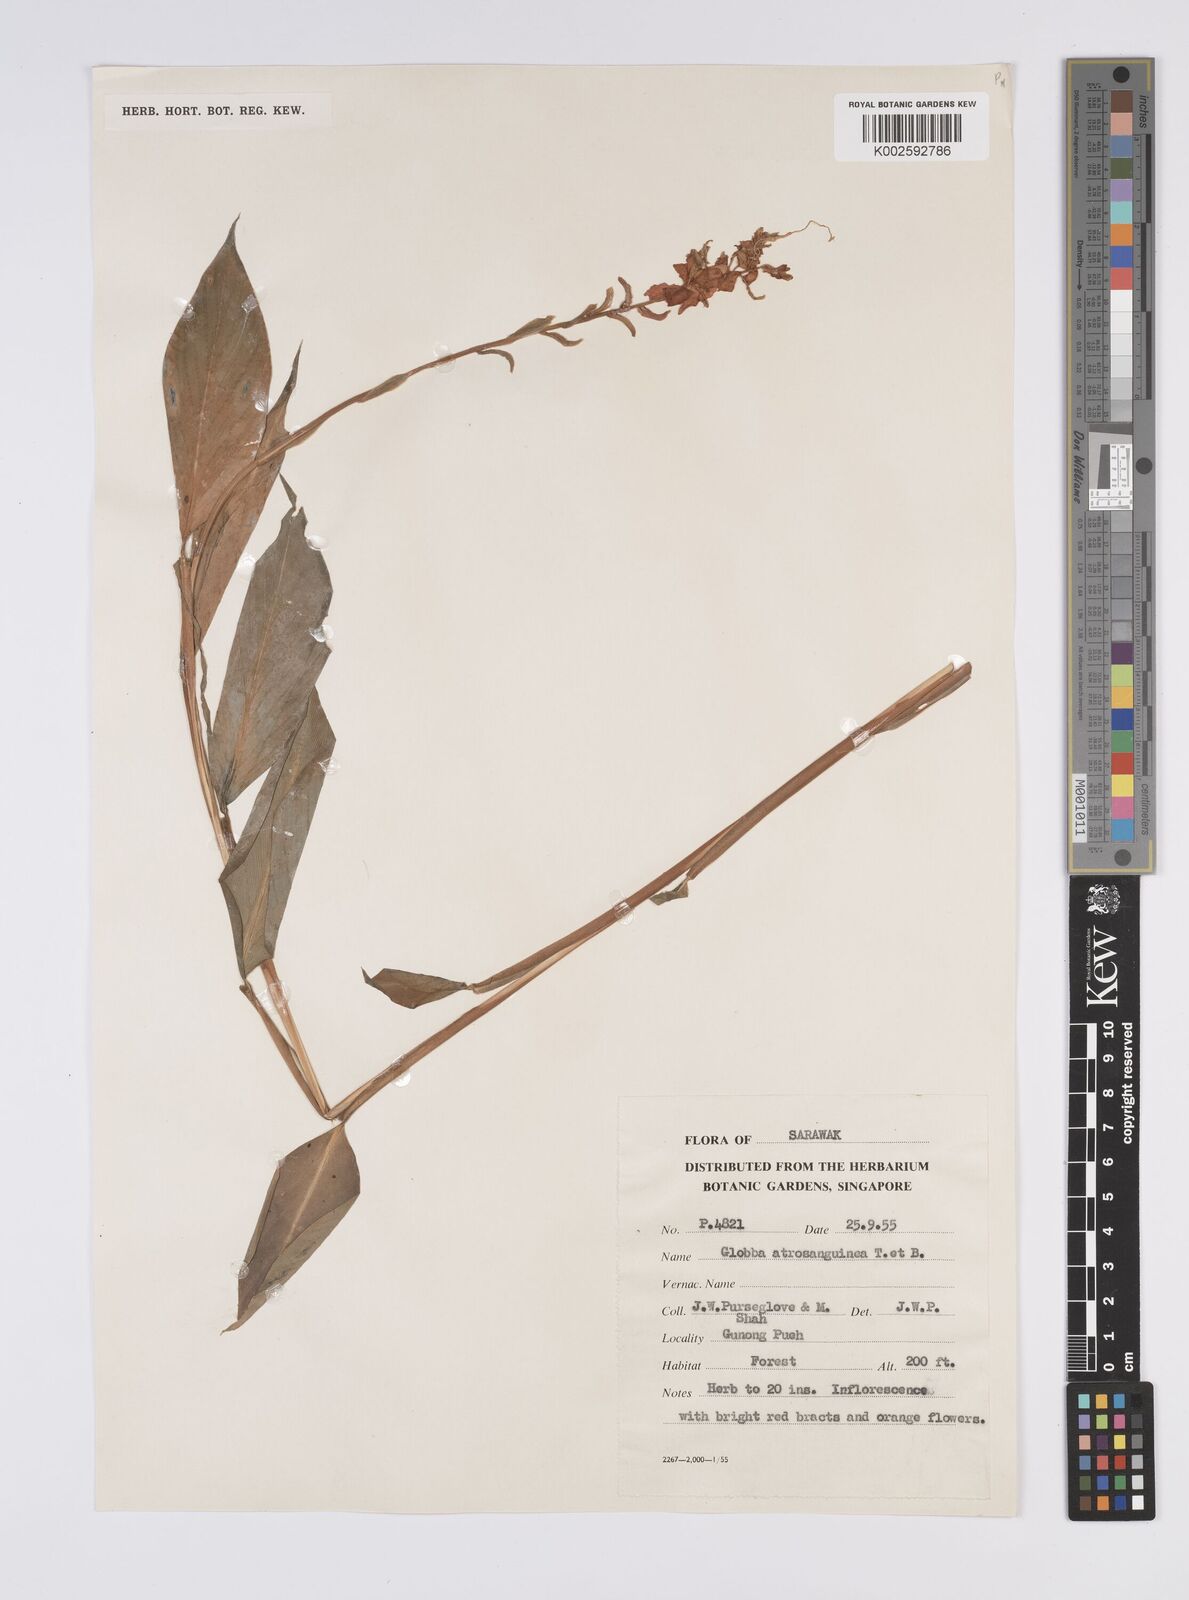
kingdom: Plantae
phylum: Tracheophyta
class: Liliopsida
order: Zingiberales
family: Zingiberaceae
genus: Globba
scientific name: Globba atrosanguinea
